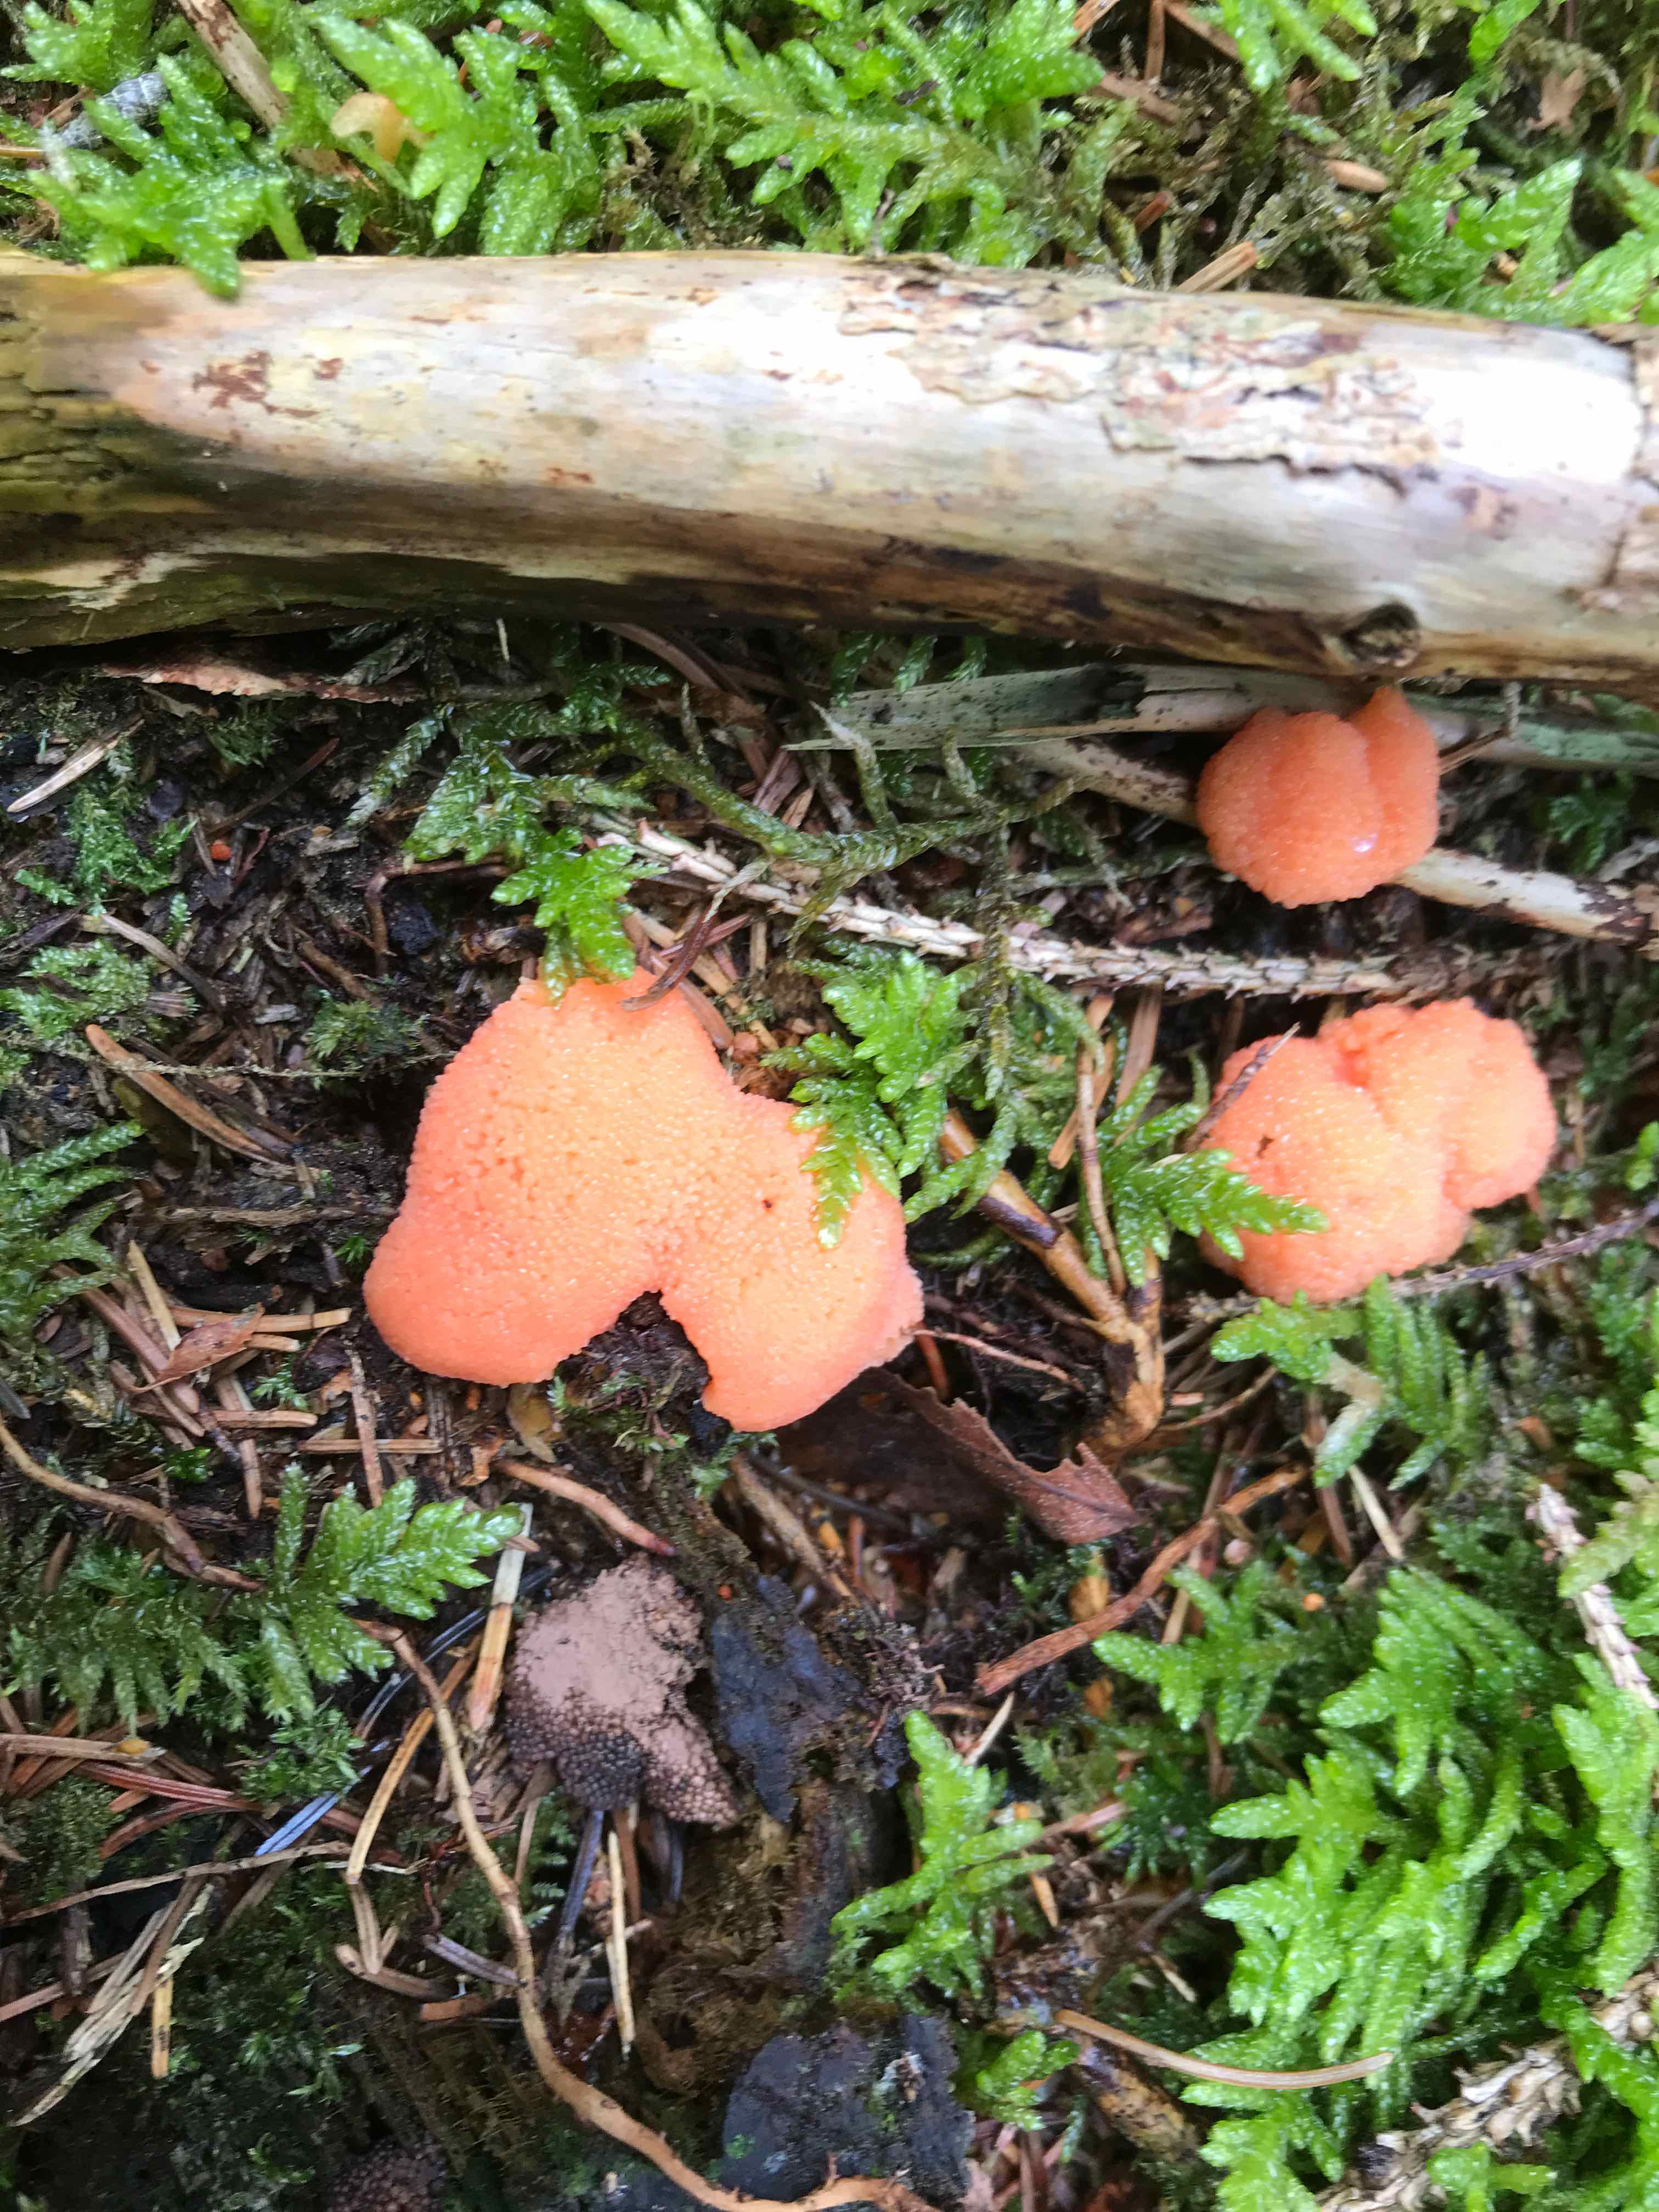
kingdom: Protozoa
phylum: Mycetozoa
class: Myxomycetes
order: Cribrariales
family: Tubiferaceae
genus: Tubifera
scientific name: Tubifera ferruginosa
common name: kanel-støvrør
